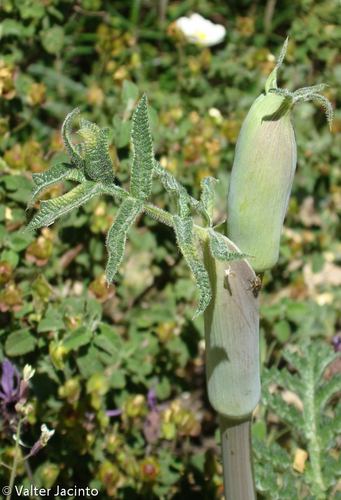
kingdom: Plantae
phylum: Tracheophyta
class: Magnoliopsida
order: Apiales
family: Apiaceae
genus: Thapsia
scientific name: Thapsia villosa
